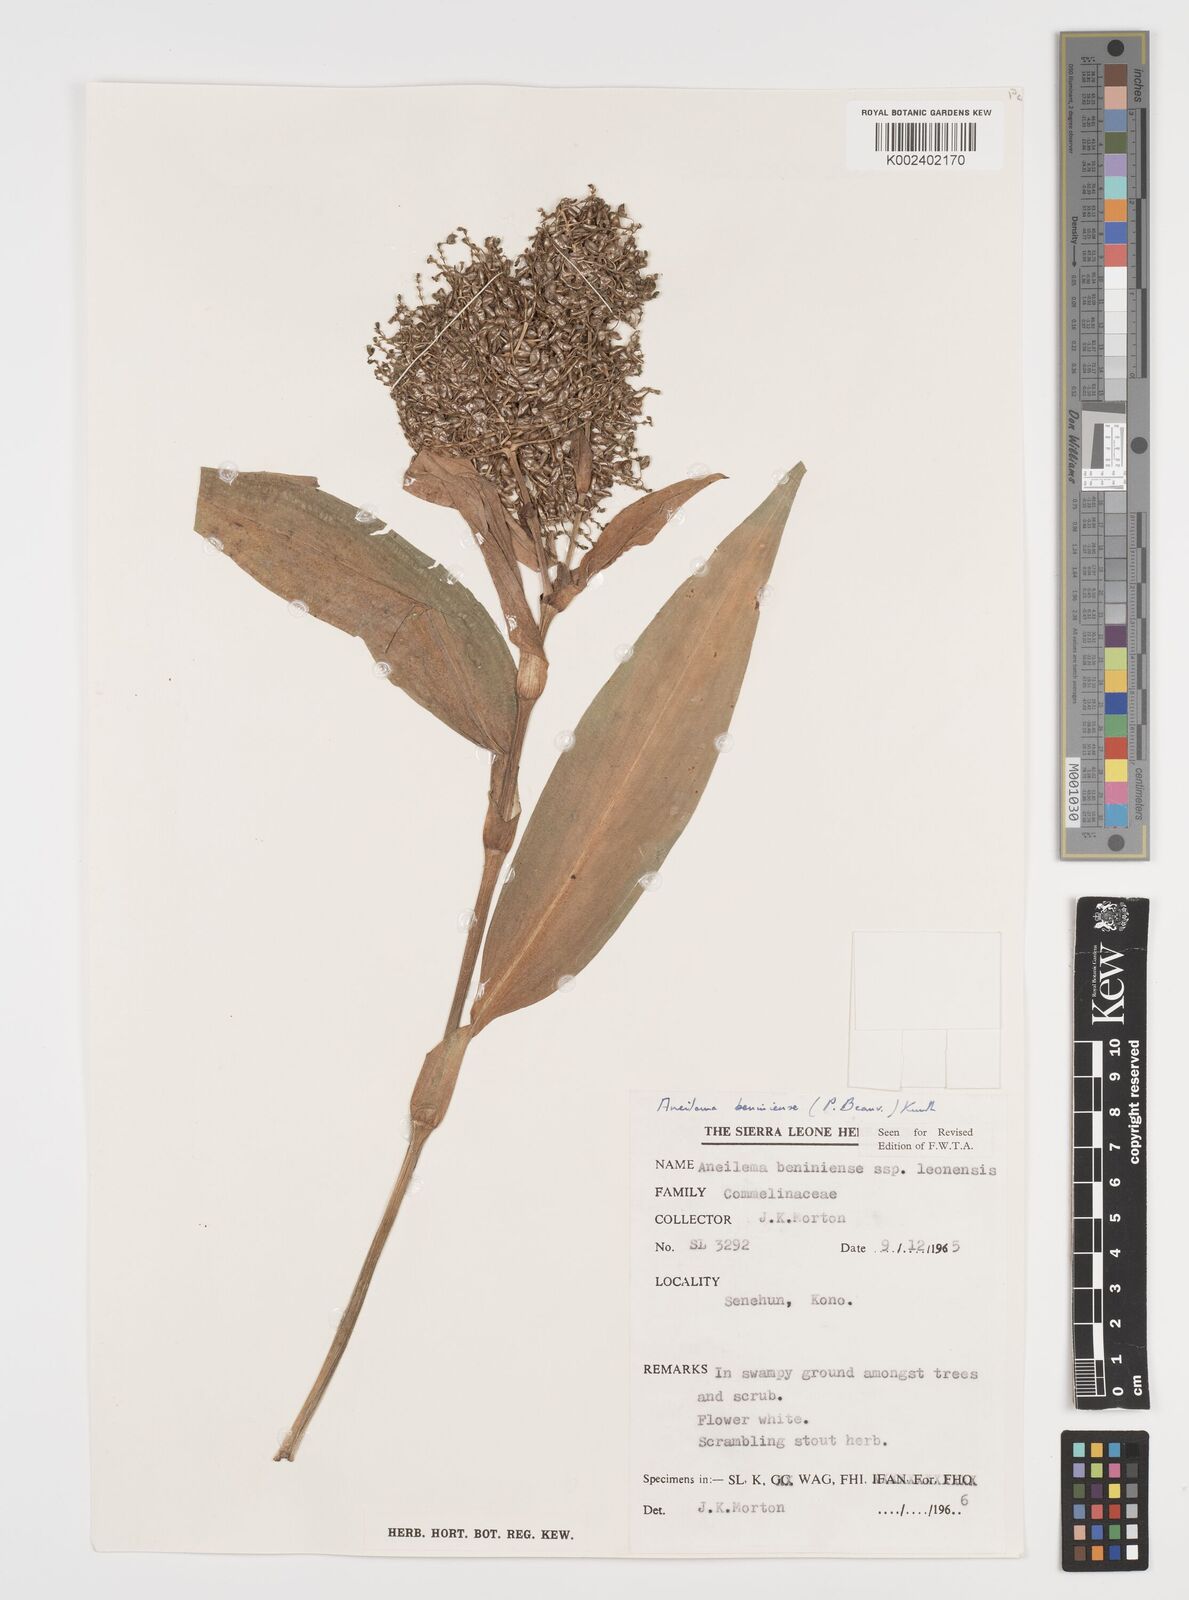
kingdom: Plantae
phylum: Tracheophyta
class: Liliopsida
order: Commelinales
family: Commelinaceae
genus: Aneilema
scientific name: Aneilema beniniense
